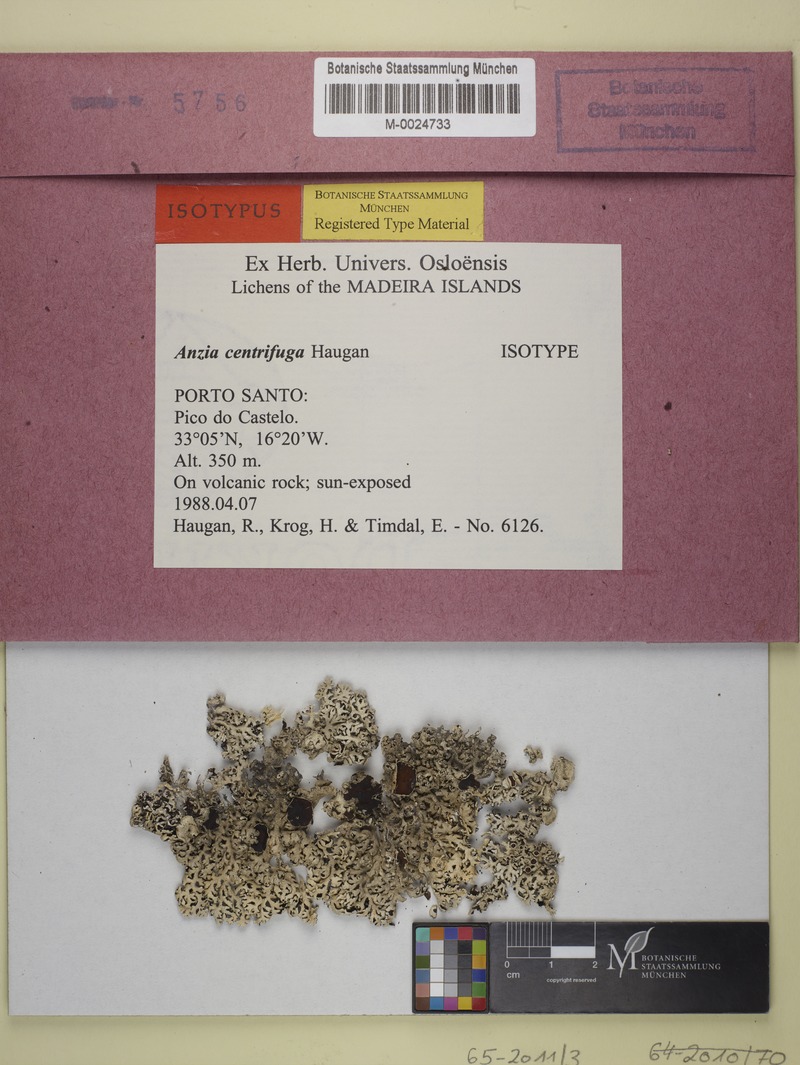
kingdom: Fungi
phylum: Ascomycota
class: Lecanoromycetes
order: Lecanorales
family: Parmeliaceae
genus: Anzia
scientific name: Anzia centrifuga
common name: Porto santo foam lichen
